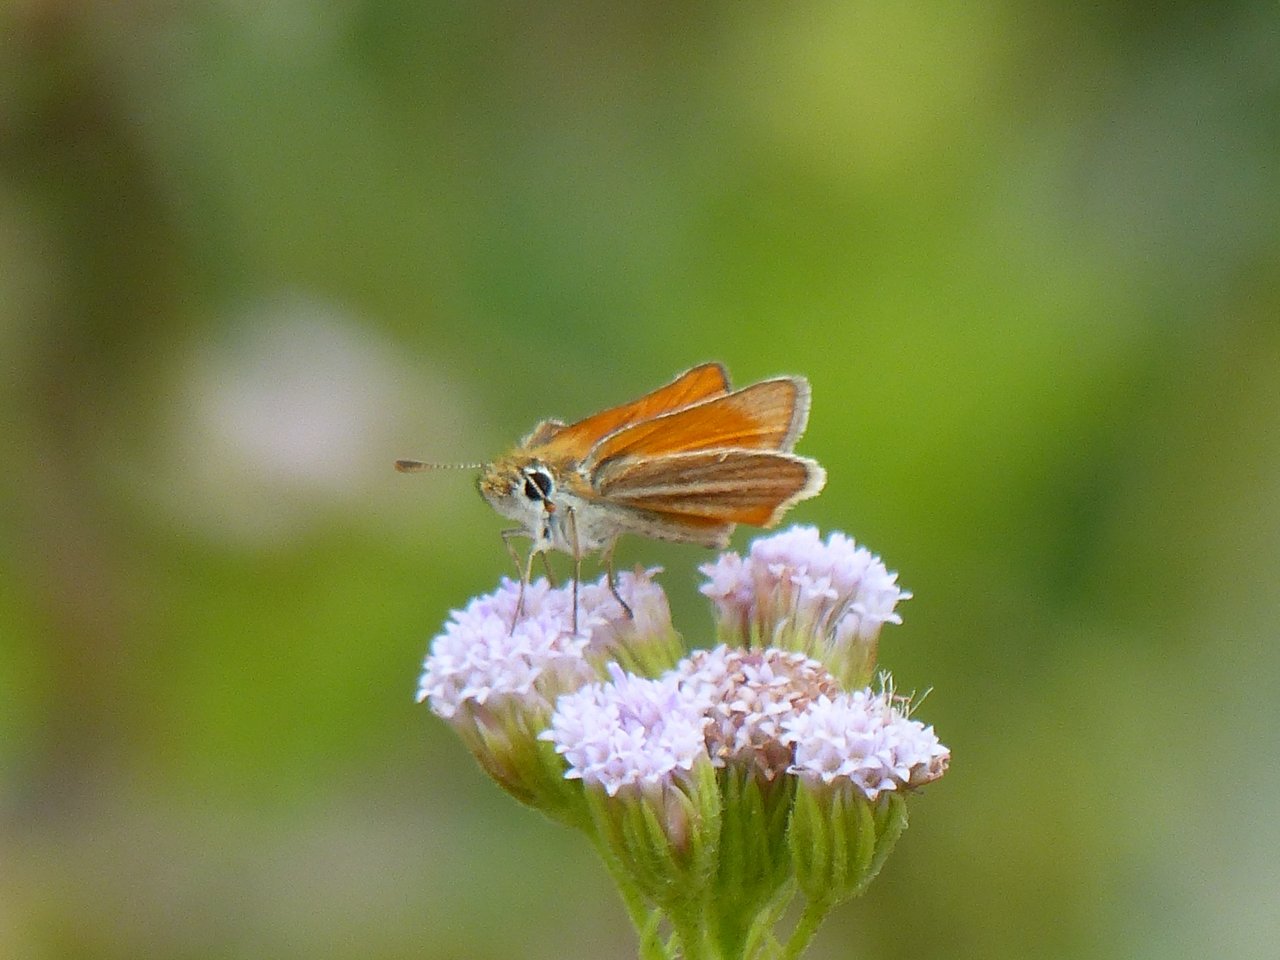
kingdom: Animalia
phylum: Arthropoda
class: Insecta
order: Lepidoptera
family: Hesperiidae
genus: Copaeodes
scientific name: Copaeodes minima
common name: Southern Skipperling
